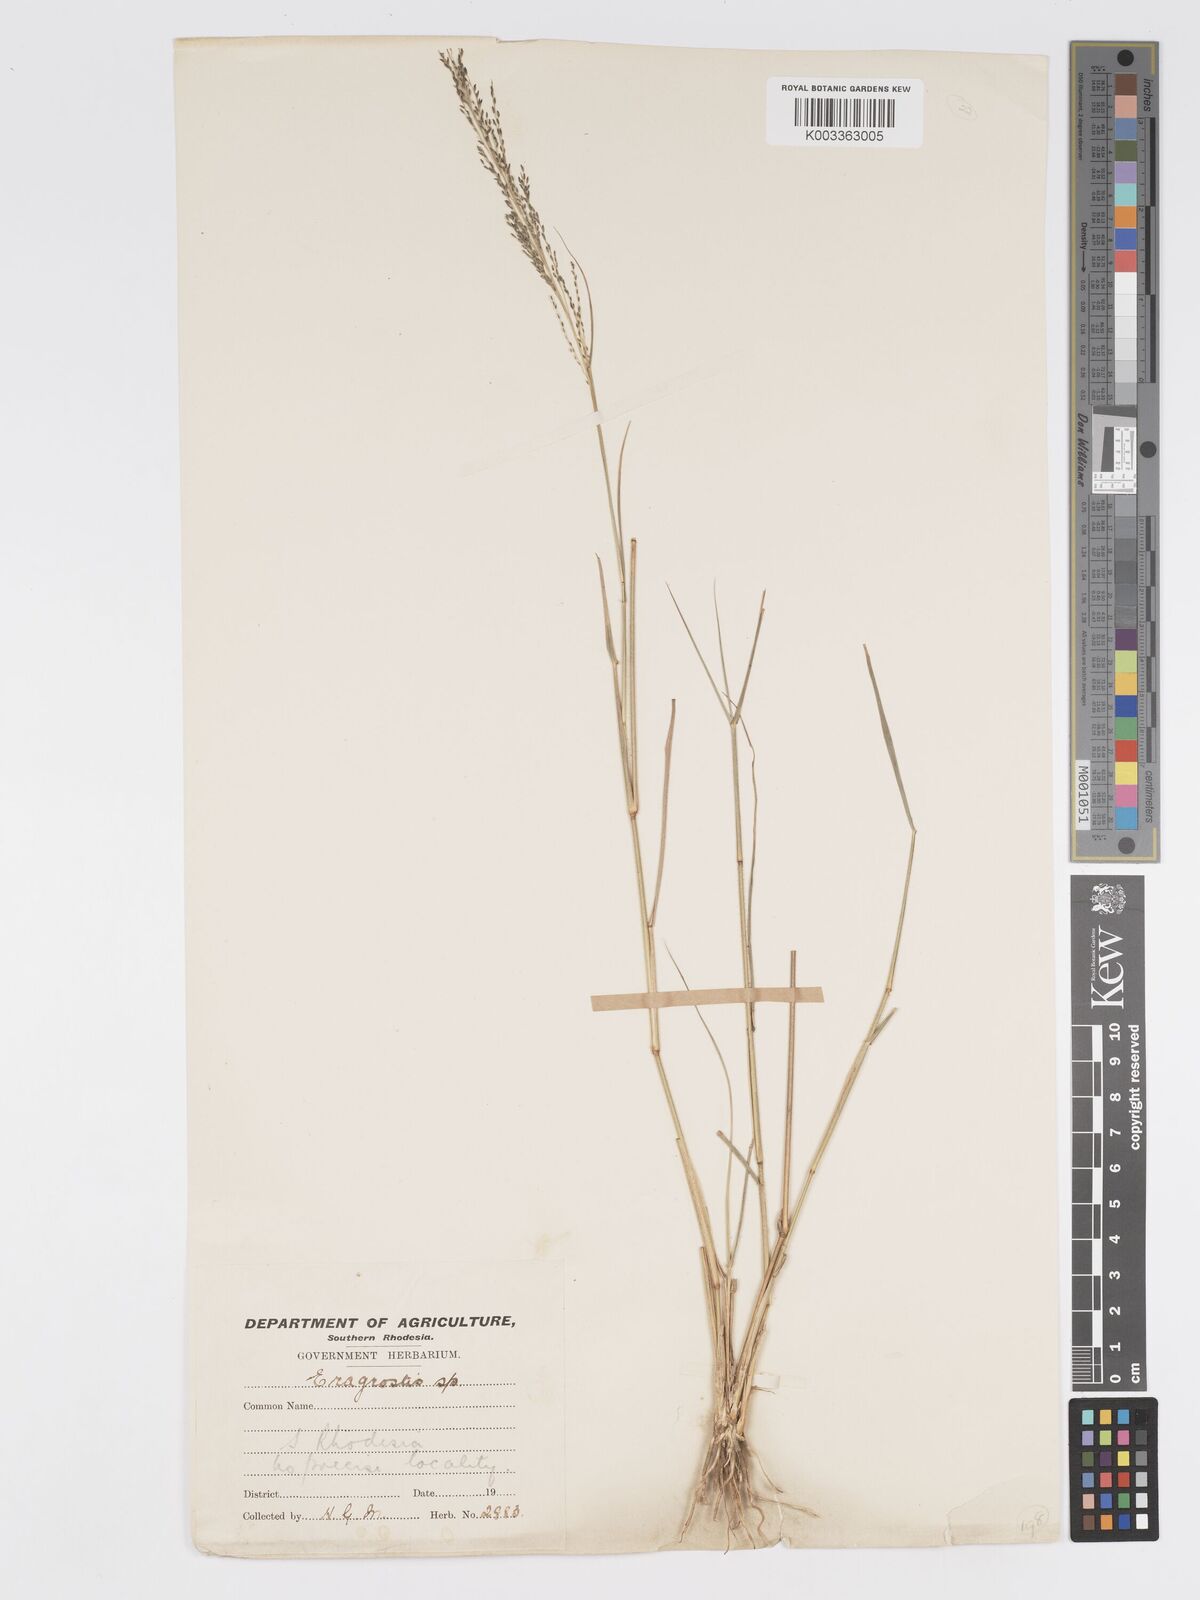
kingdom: Plantae
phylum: Tracheophyta
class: Liliopsida
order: Poales
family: Poaceae
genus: Eragrostis
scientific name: Eragrostis cylindriflora
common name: Cylinderflower lovegrass
